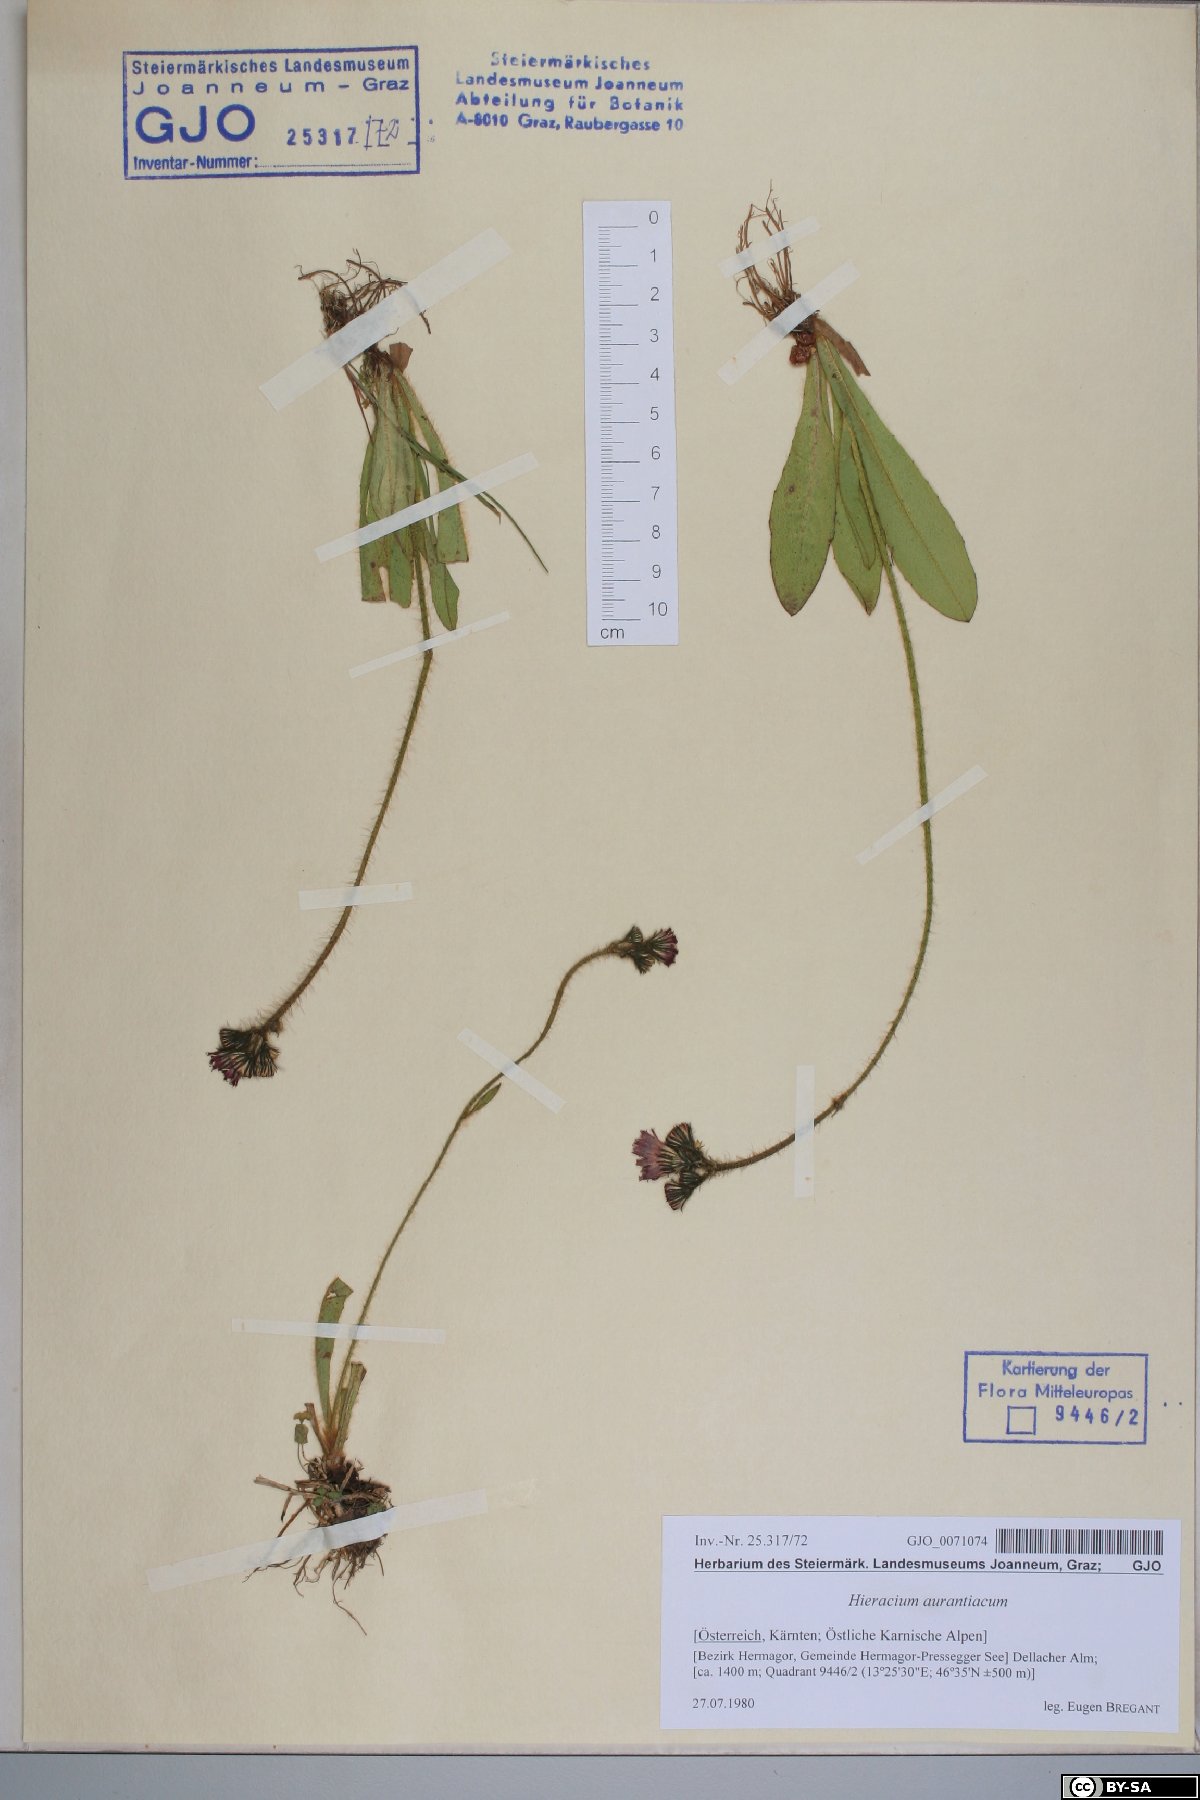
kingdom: Plantae
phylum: Tracheophyta
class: Magnoliopsida
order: Asterales
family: Asteraceae
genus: Pilosella
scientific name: Pilosella aurantiaca
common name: Fox-and-cubs
